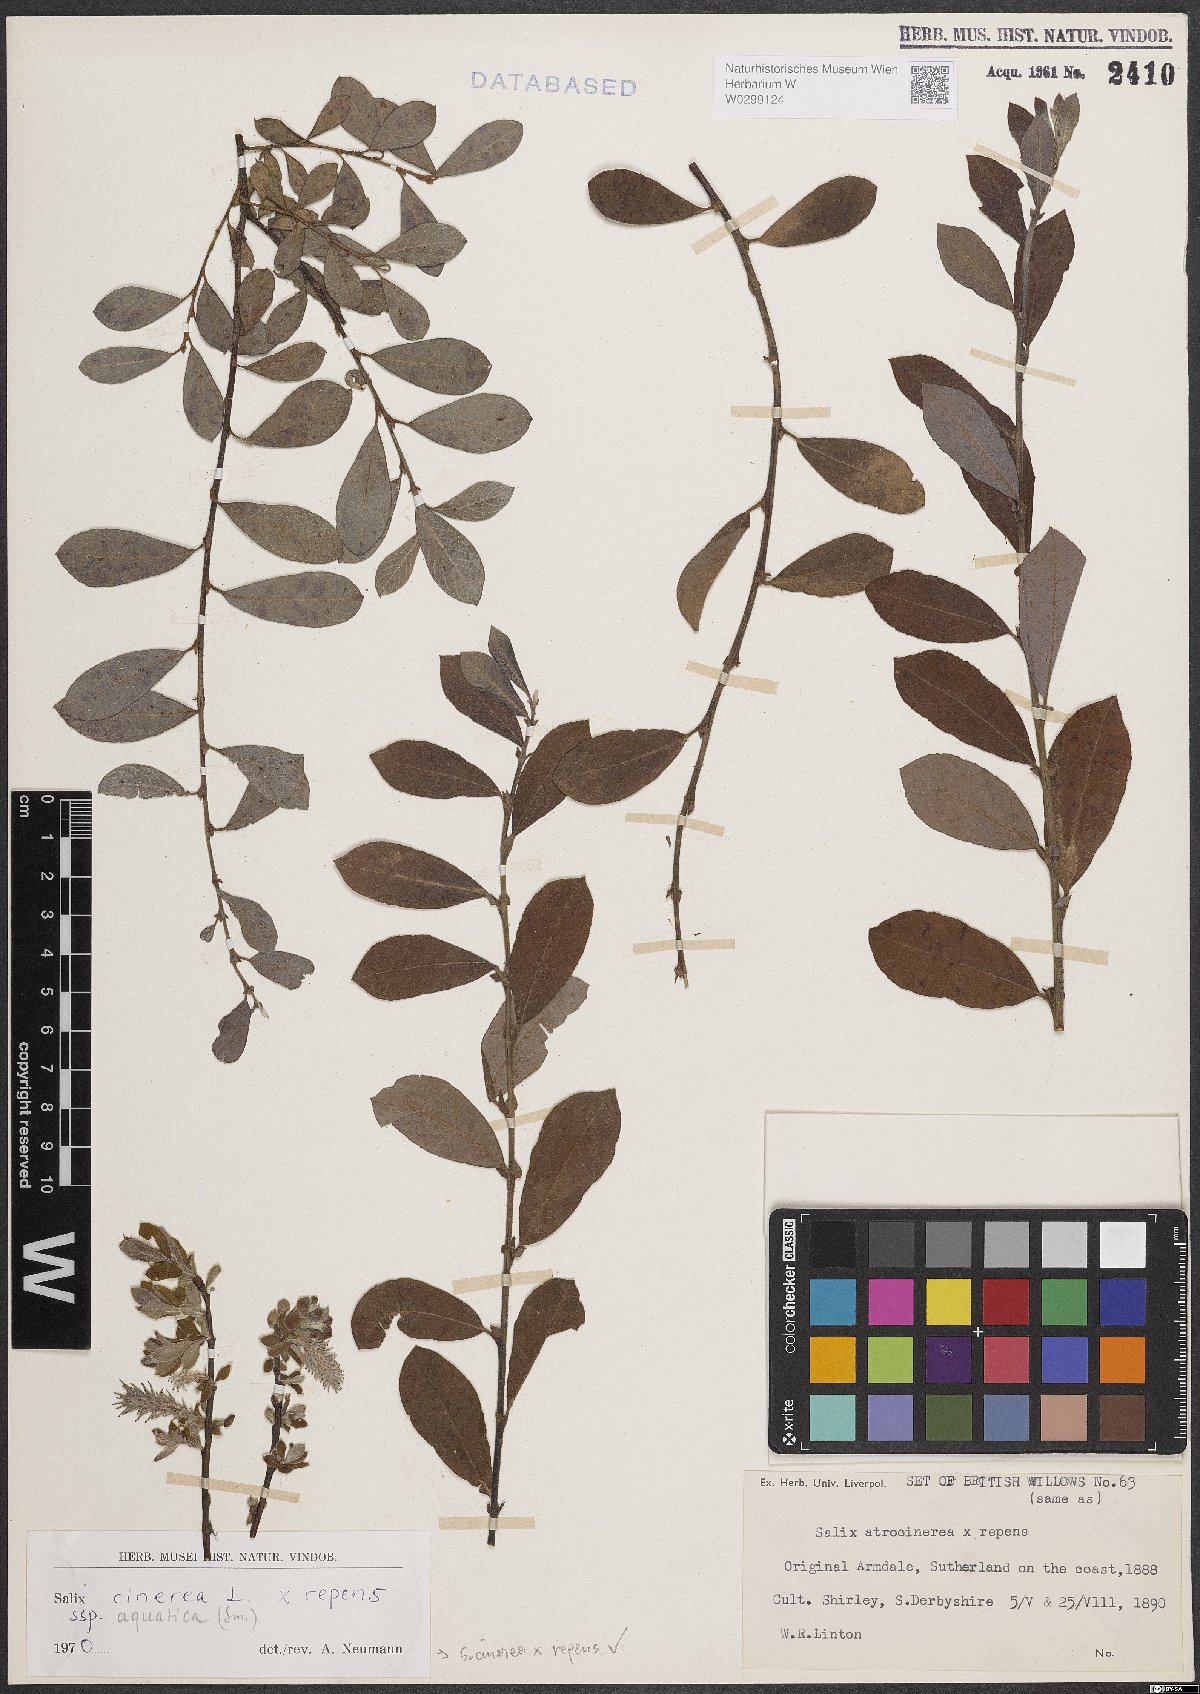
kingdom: Plantae
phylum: Tracheophyta
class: Magnoliopsida
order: Malpighiales
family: Salicaceae
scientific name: Salicaceae
